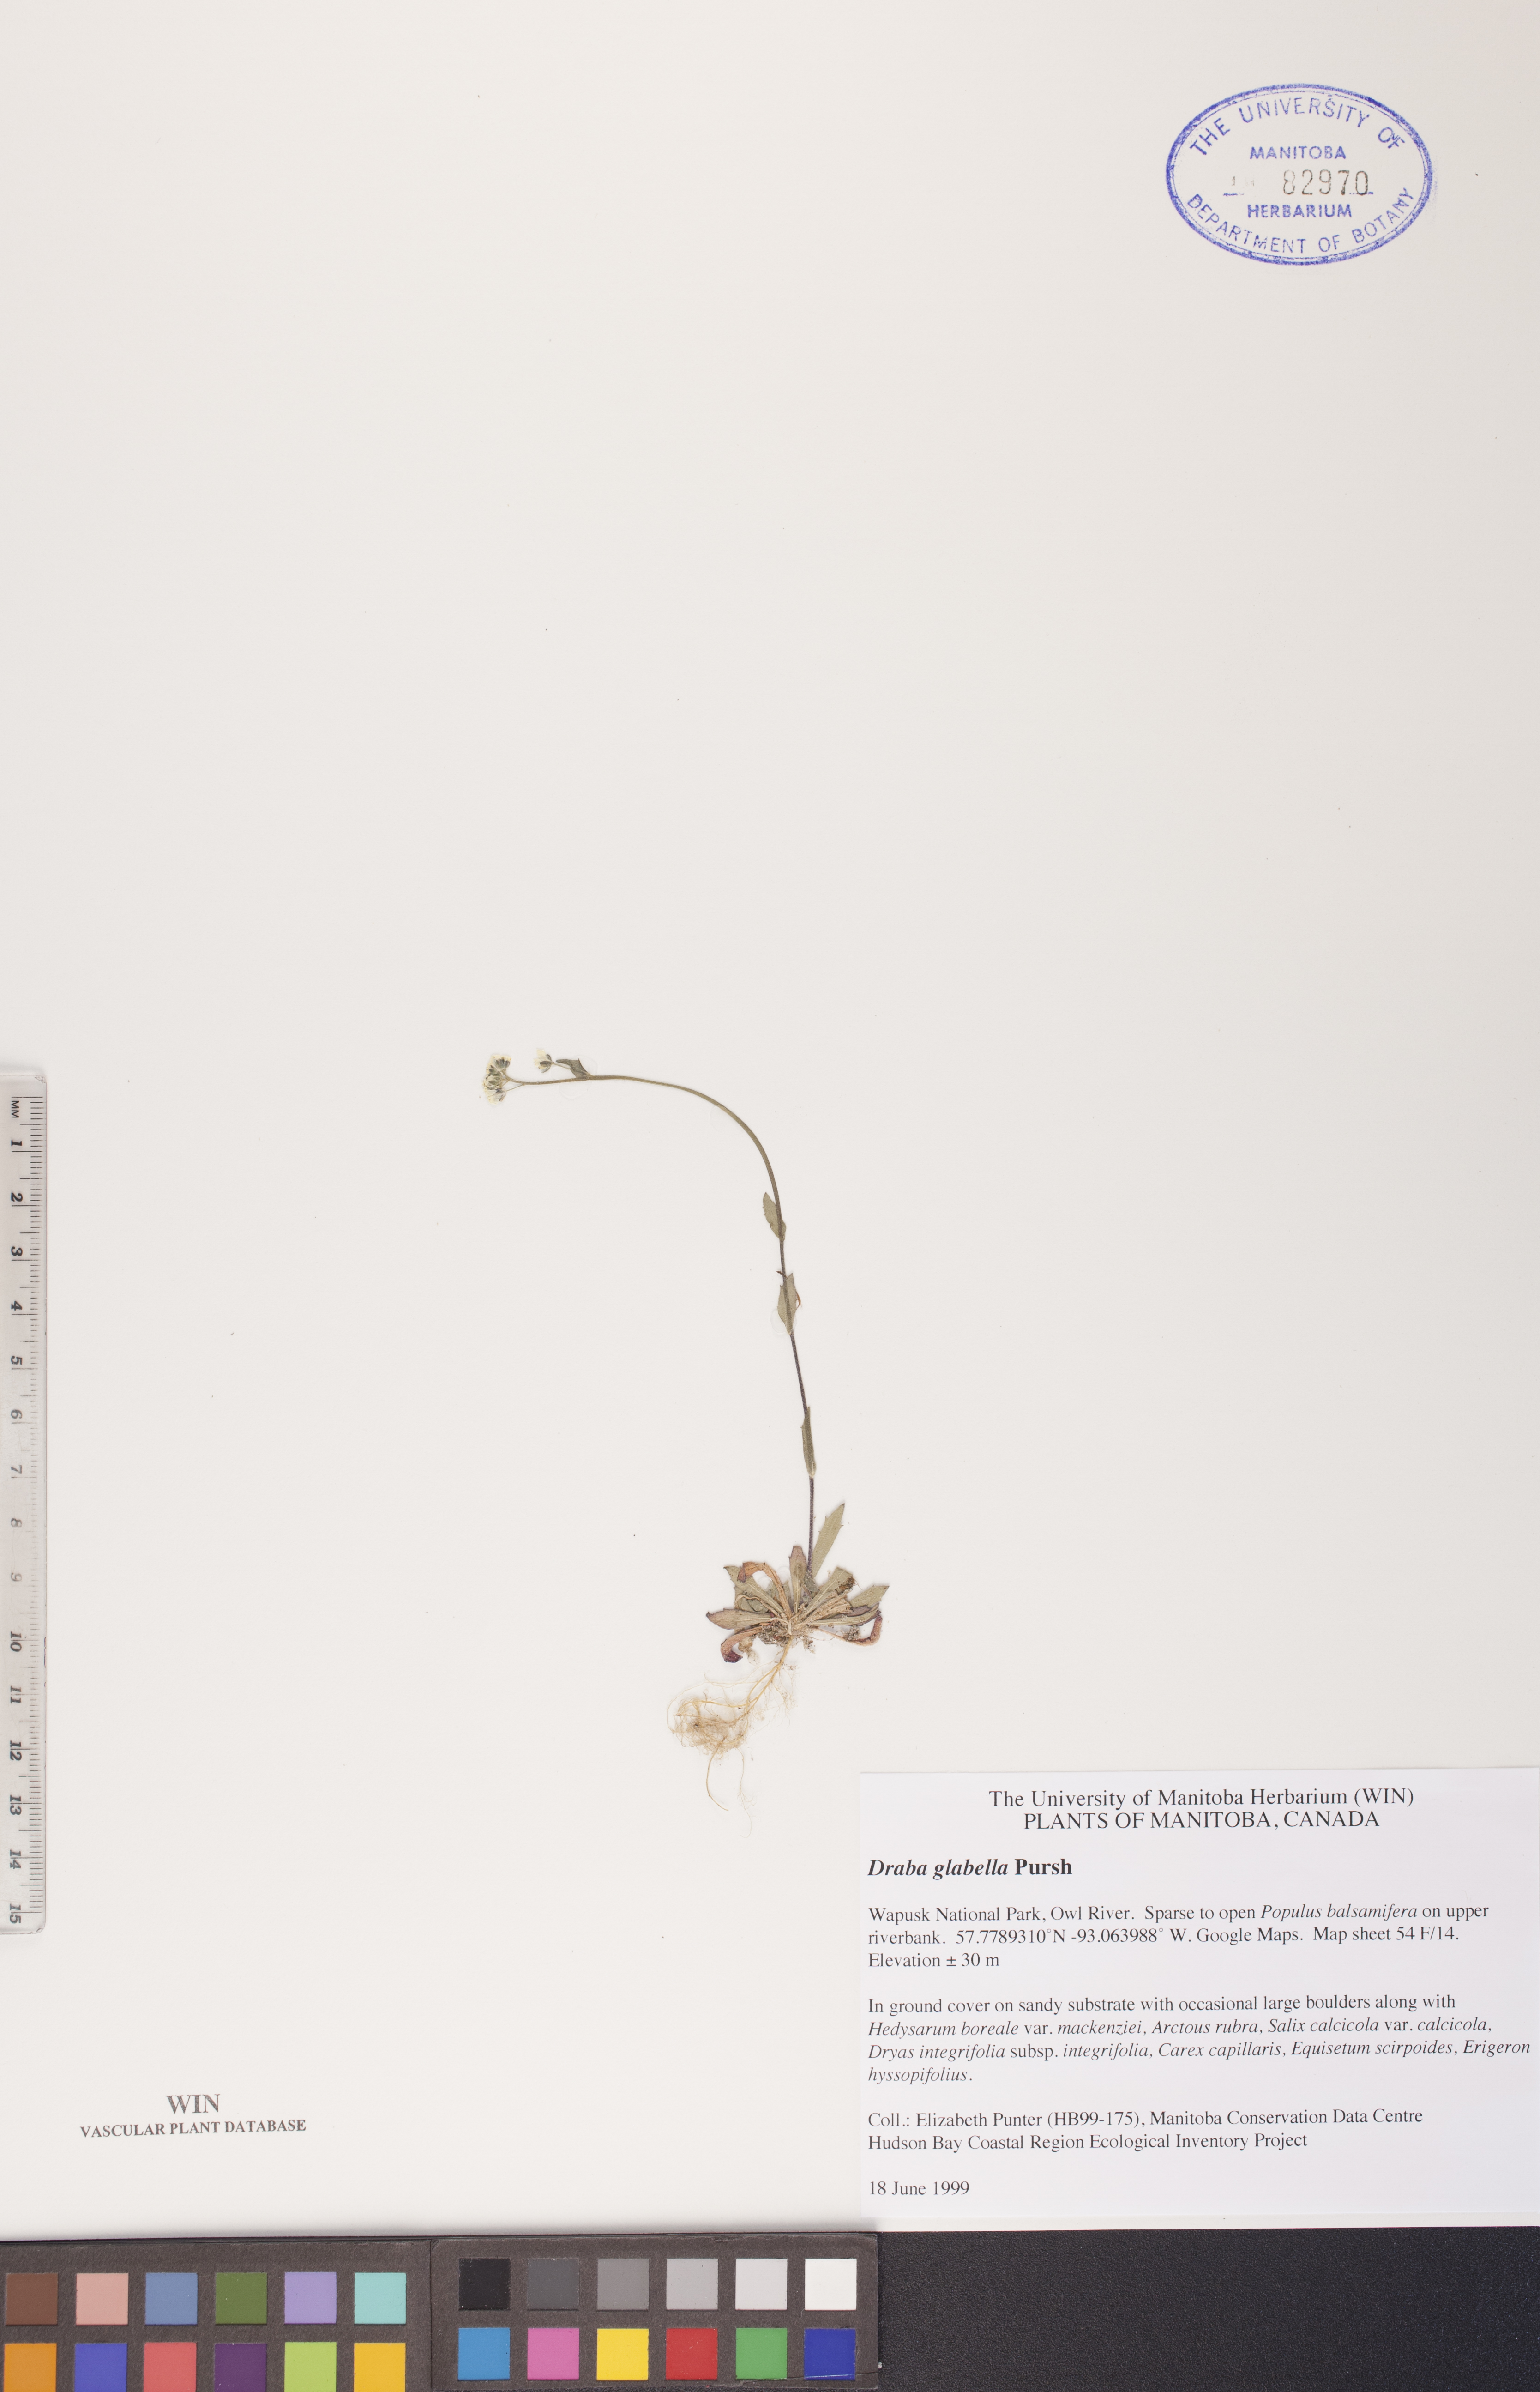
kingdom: Plantae
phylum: Tracheophyta
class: Magnoliopsida
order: Brassicales
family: Brassicaceae
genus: Draba
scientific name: Draba glabella
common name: Glaucous draba
